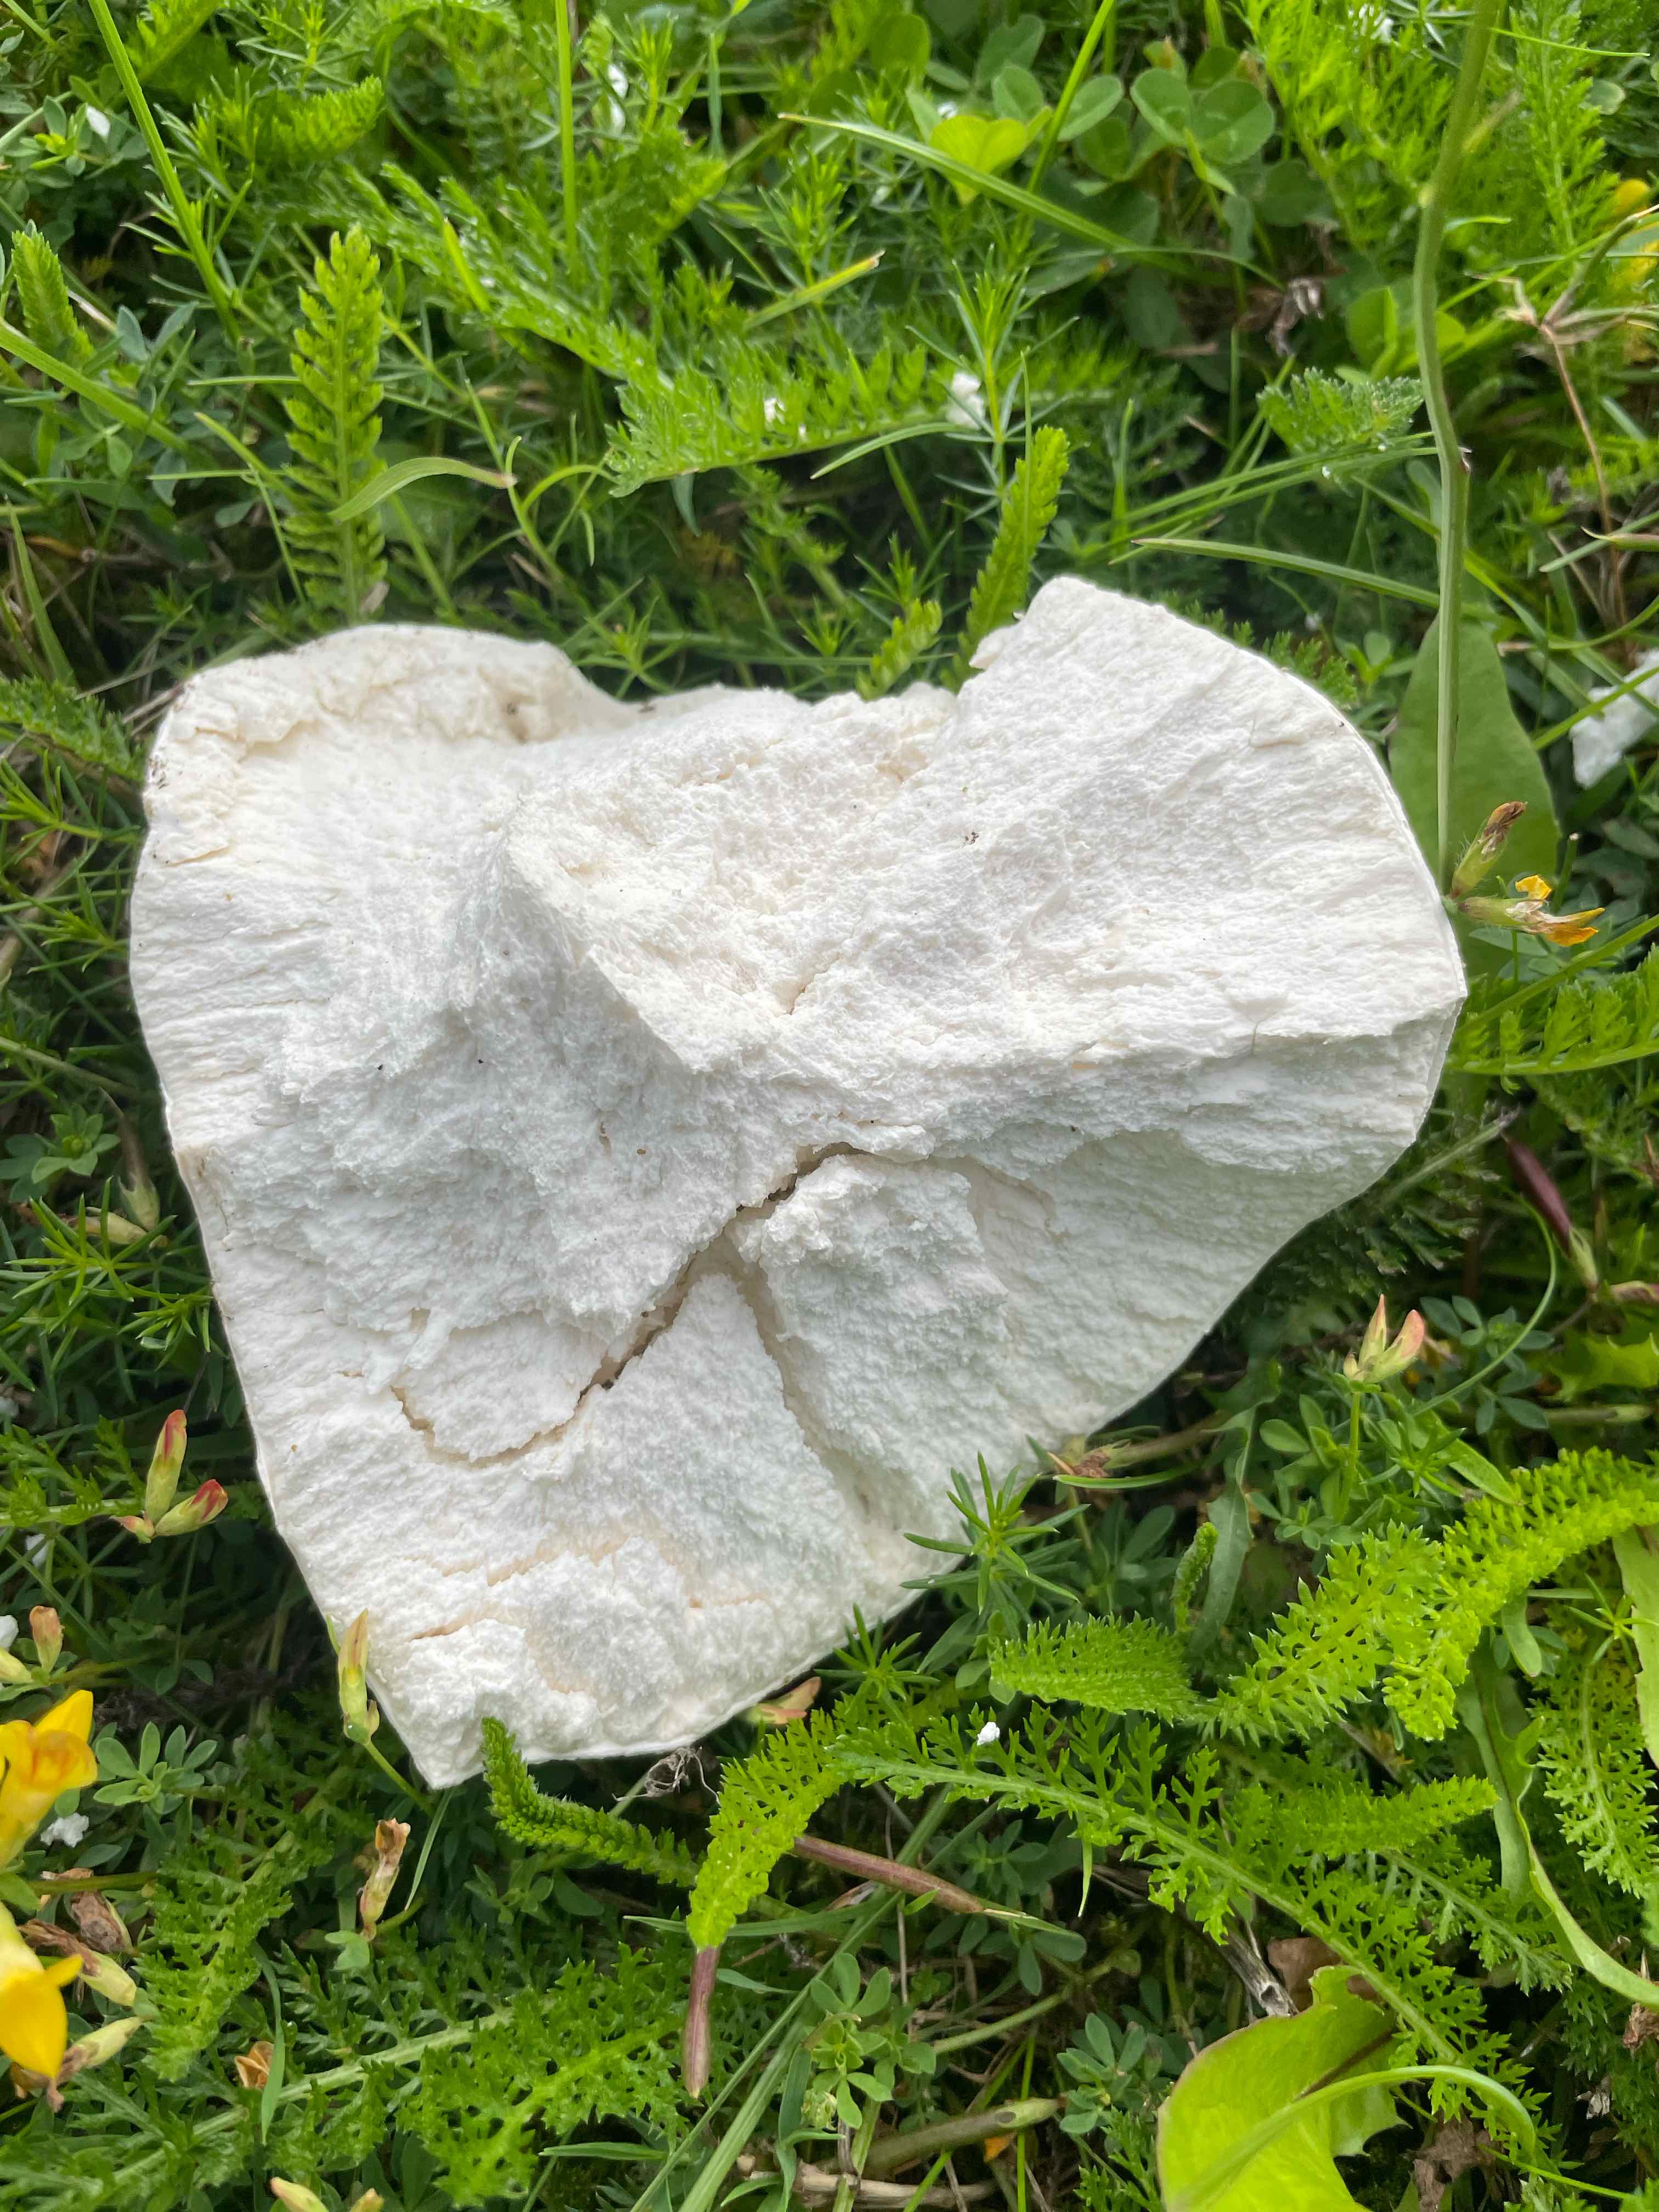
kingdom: Fungi
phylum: Basidiomycota
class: Agaricomycetes
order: Agaricales
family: Lycoperdaceae
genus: Calvatia
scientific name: Calvatia gigantea
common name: kæmpestøvbold
